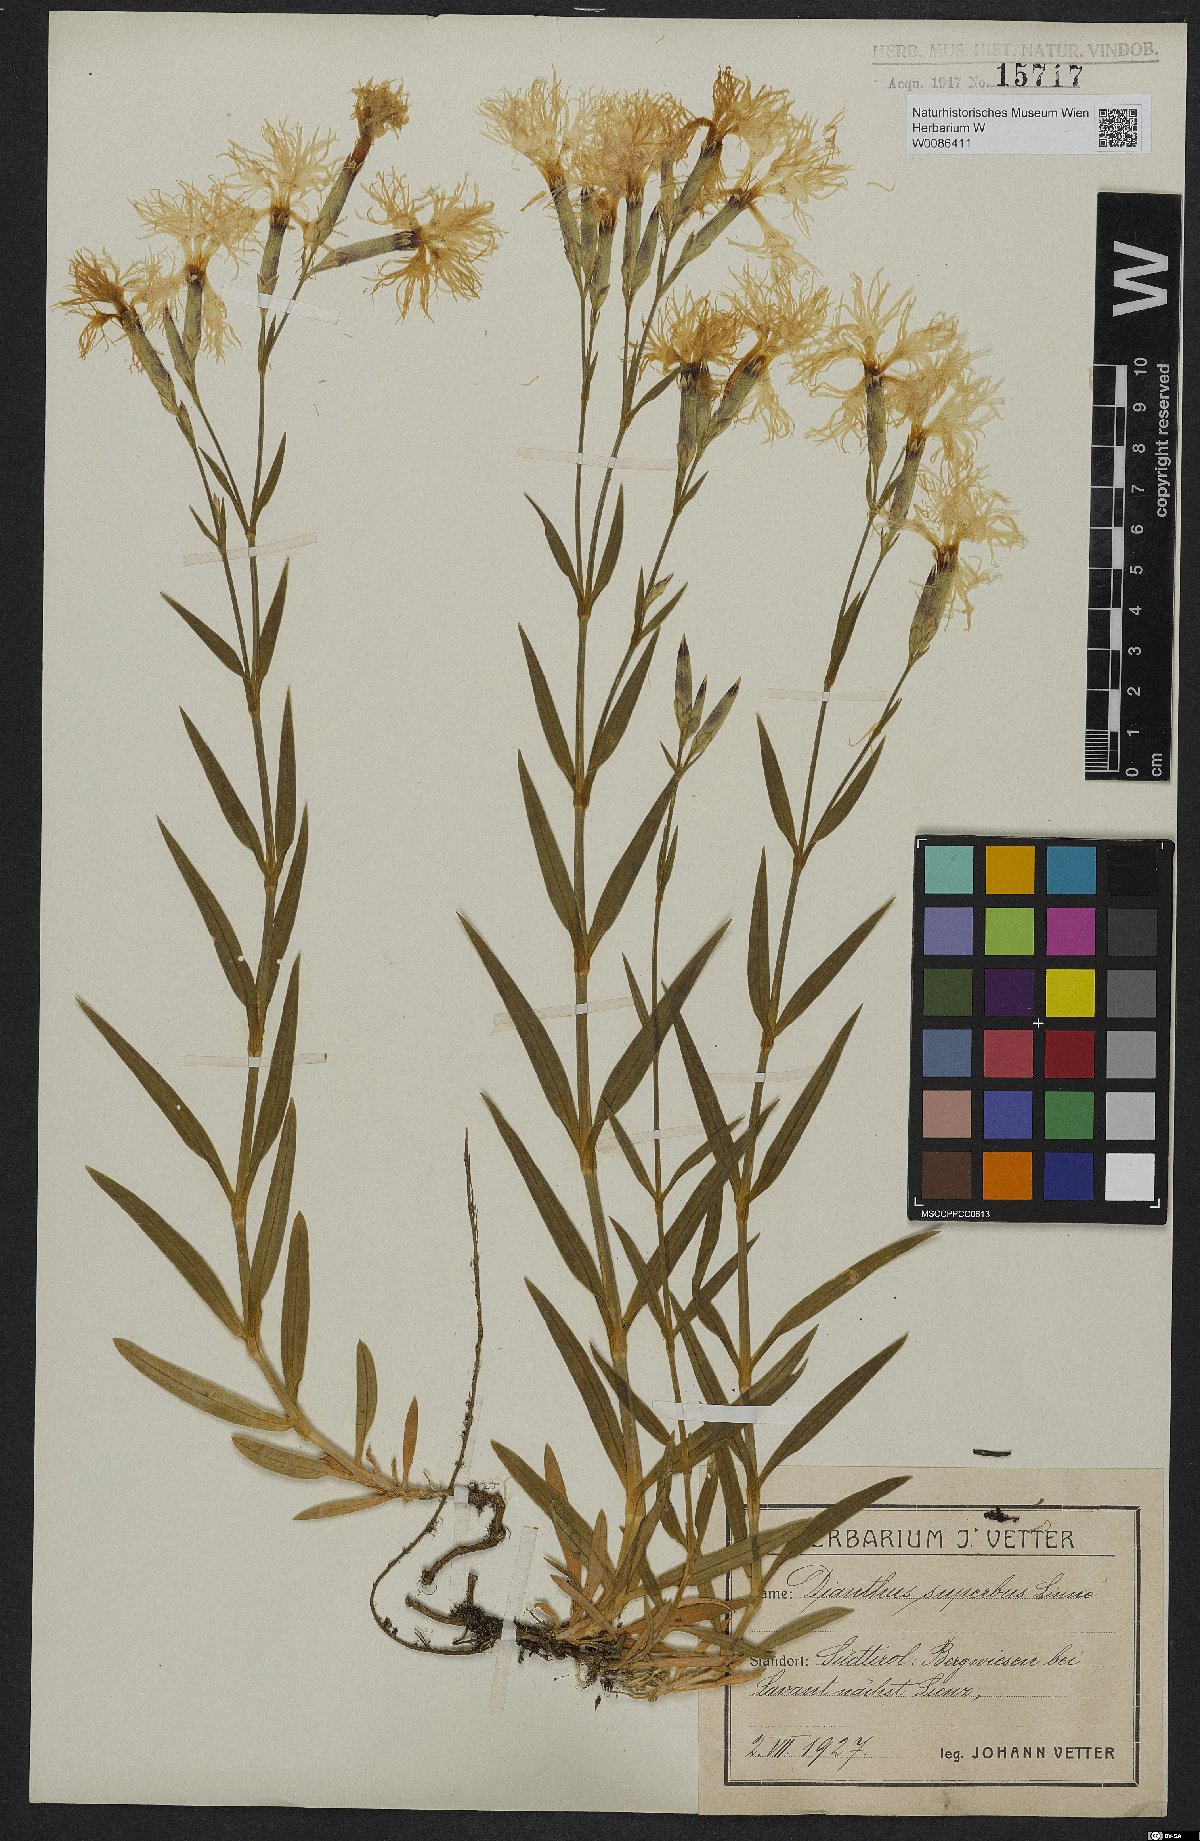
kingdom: Plantae
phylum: Tracheophyta
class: Magnoliopsida
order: Caryophyllales
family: Caryophyllaceae
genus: Dianthus
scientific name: Dianthus superbus
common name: Fringed pink
